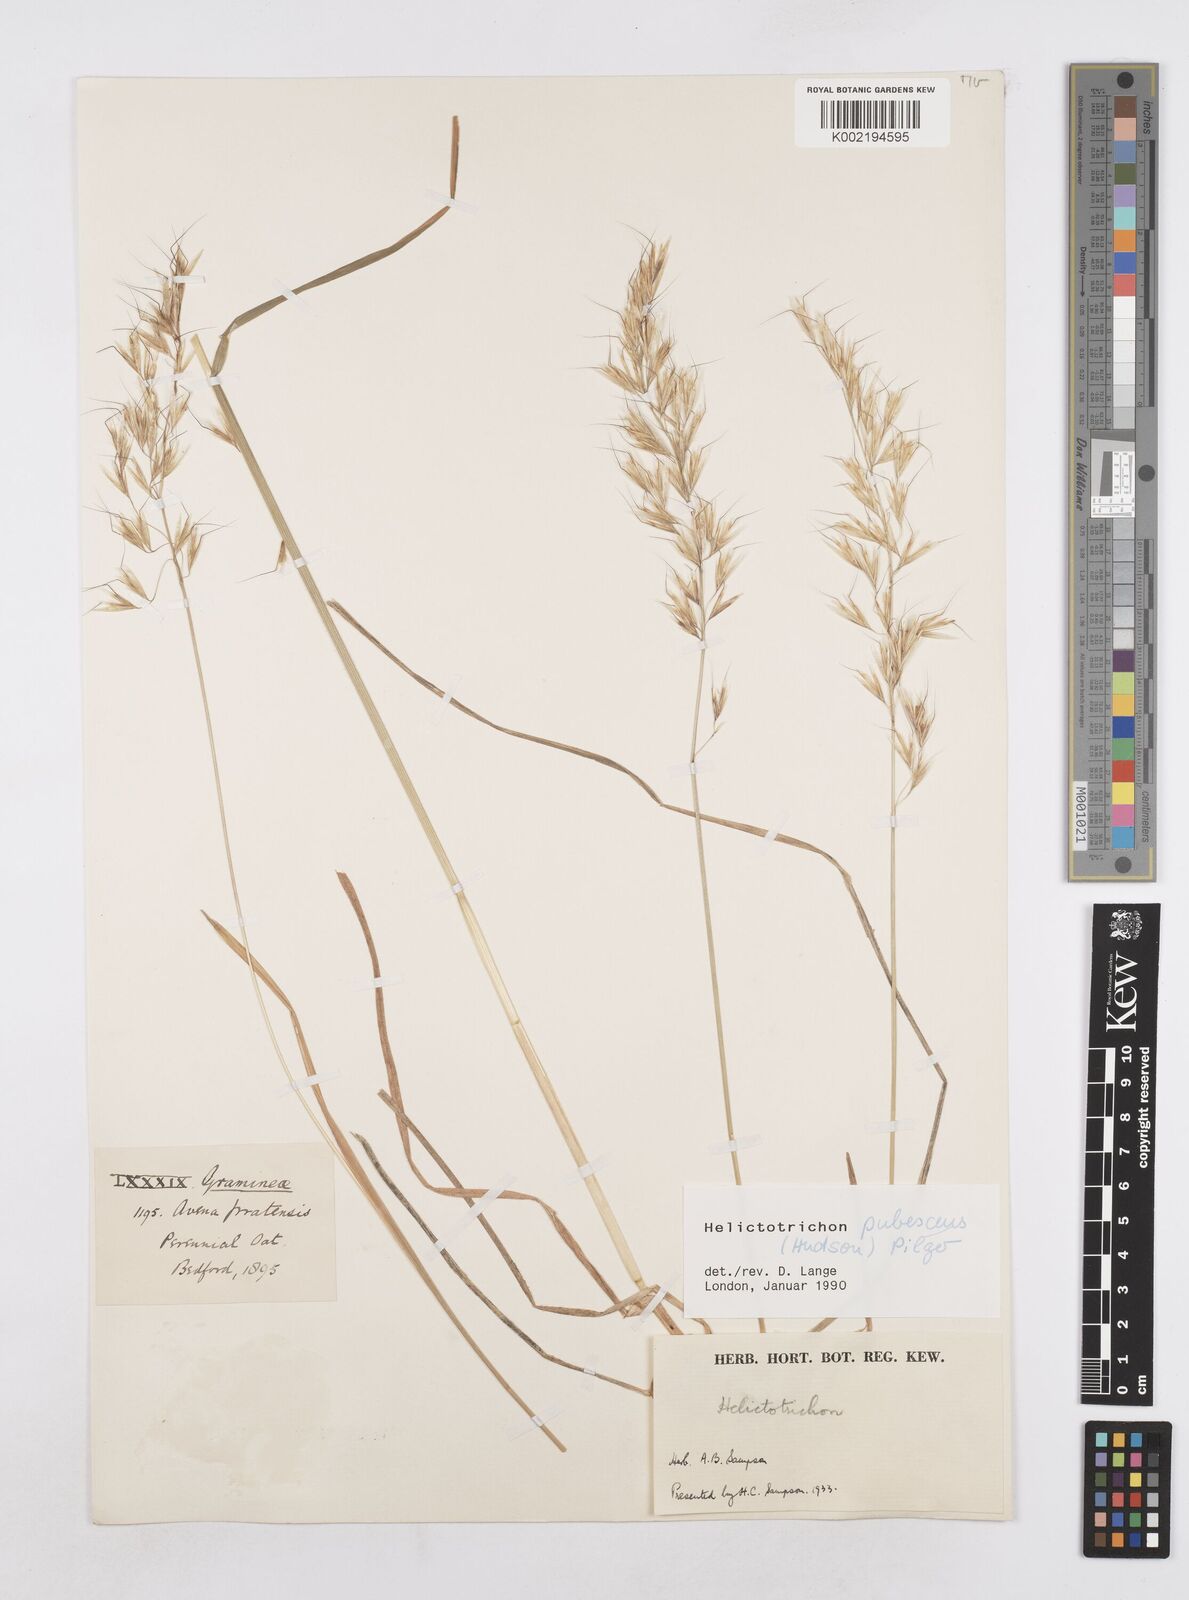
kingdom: Plantae
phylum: Tracheophyta
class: Liliopsida
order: Poales
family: Poaceae
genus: Avenula
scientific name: Avenula pubescens
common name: Downy alpine oatgrass
